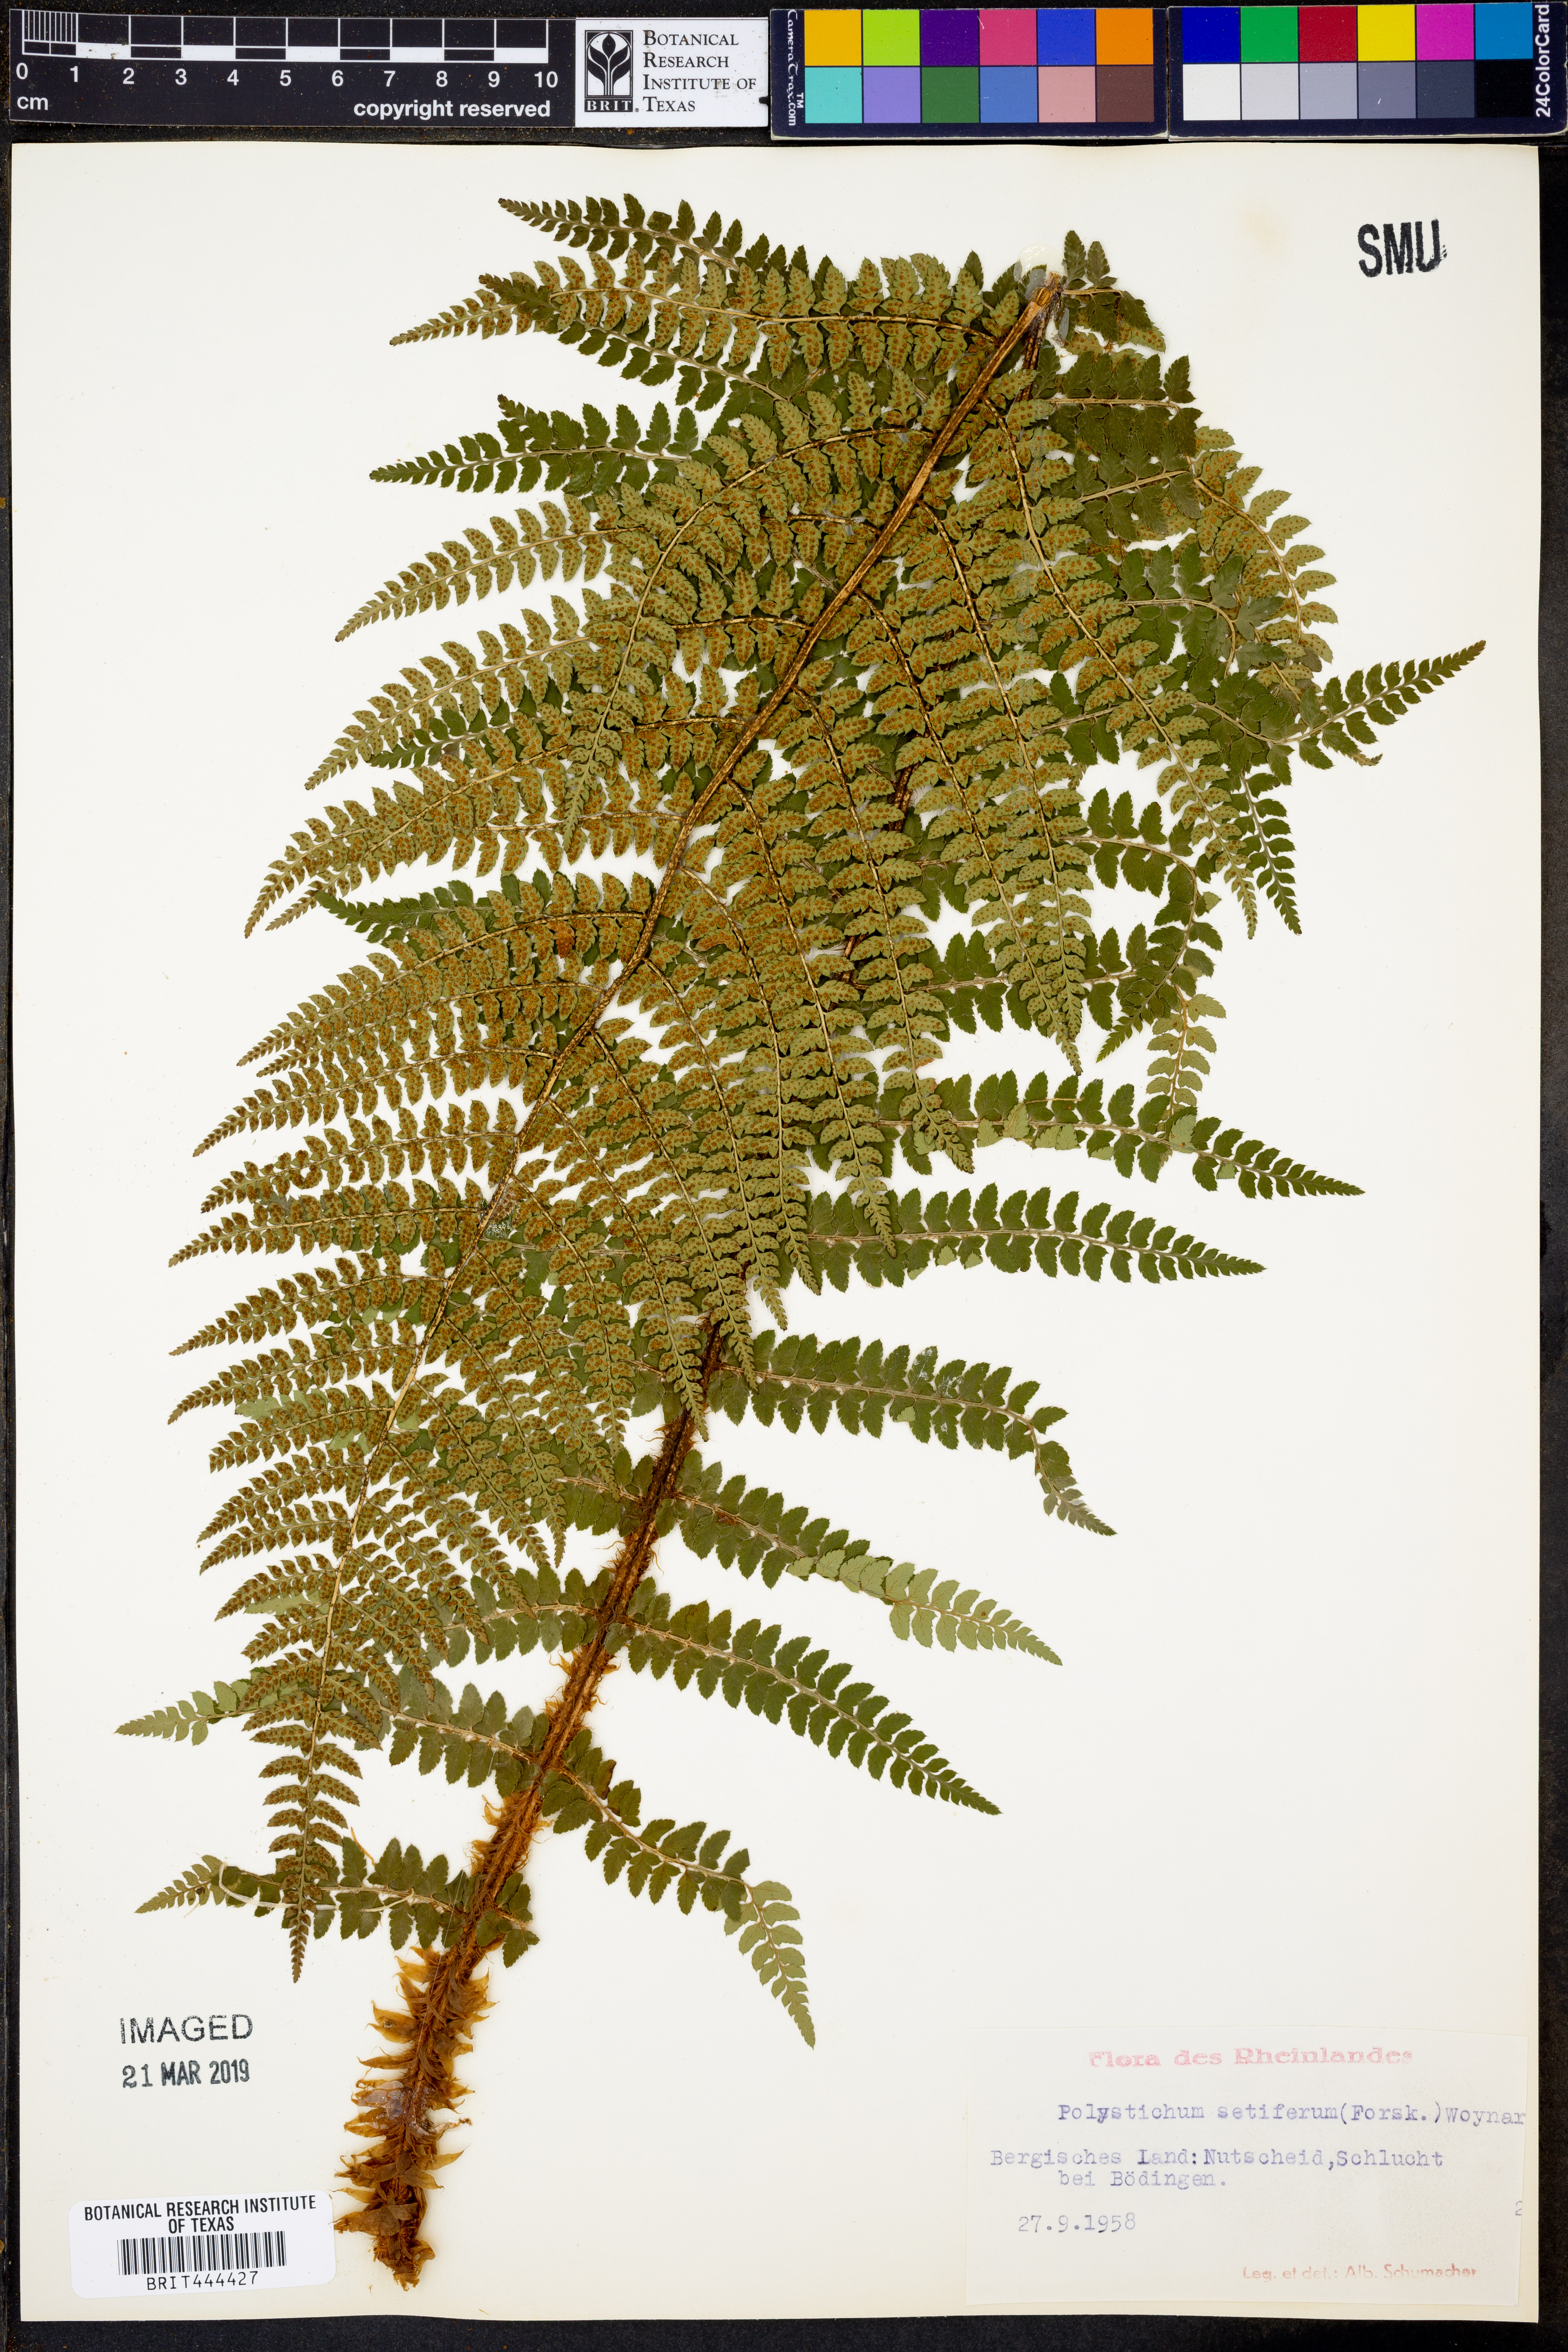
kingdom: Plantae
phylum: Tracheophyta
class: Polypodiopsida
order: Polypodiales
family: Dryopteridaceae
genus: Polystichum
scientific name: Polystichum setiferum
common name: Soft shield-fern
